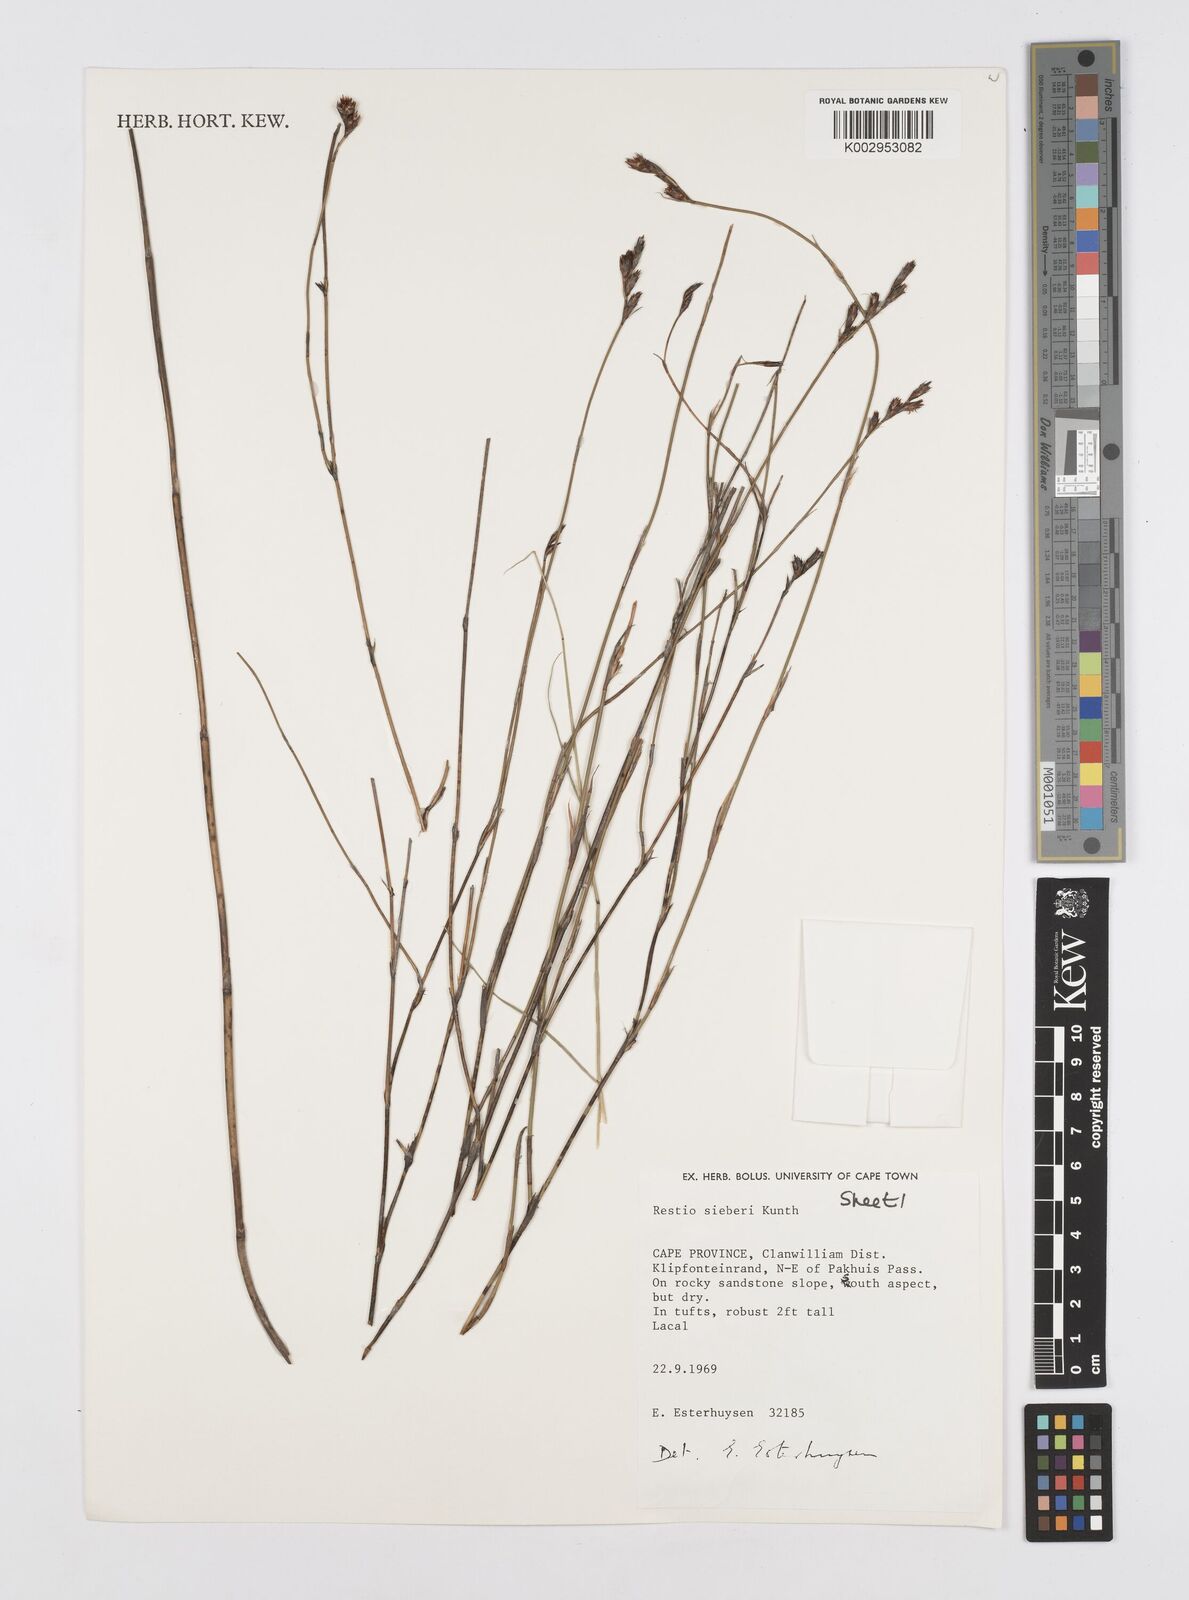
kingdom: Plantae
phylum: Tracheophyta
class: Liliopsida
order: Poales
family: Restionaceae
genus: Restio
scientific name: Restio sieberi
